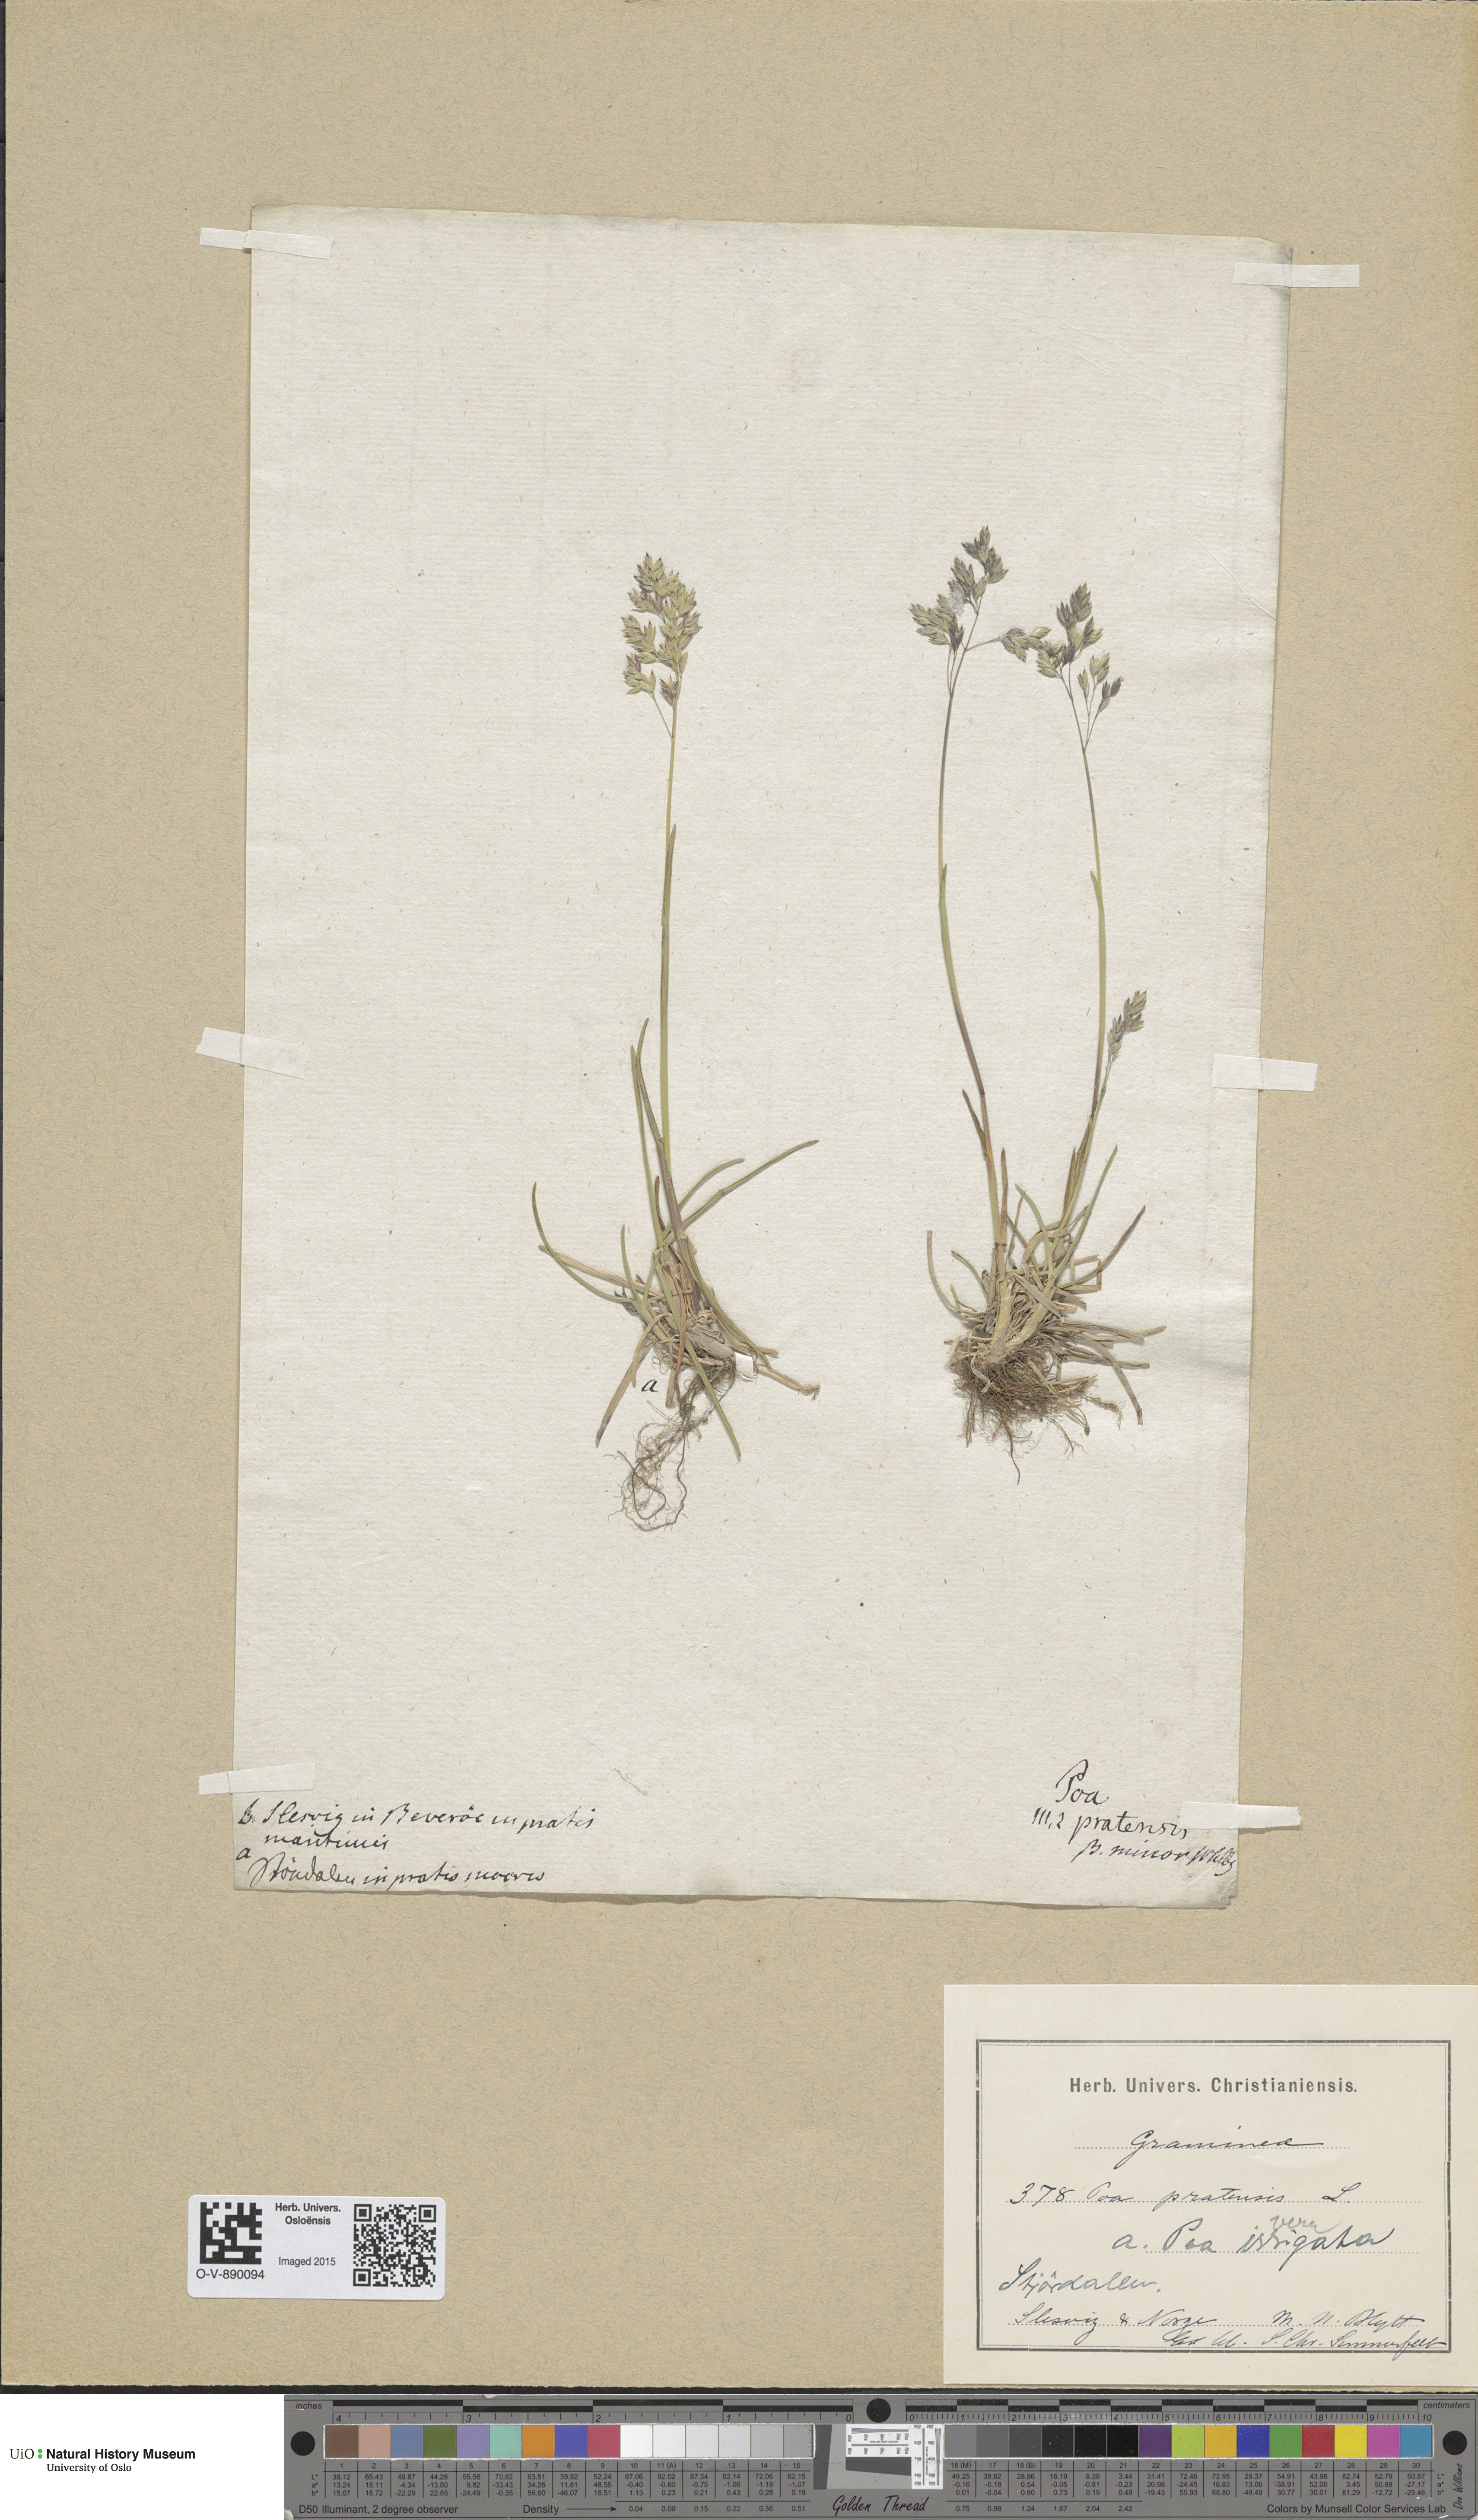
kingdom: Plantae
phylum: Tracheophyta
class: Liliopsida
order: Poales
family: Poaceae
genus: Poa
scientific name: Poa pratensis
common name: Kentucky bluegrass
